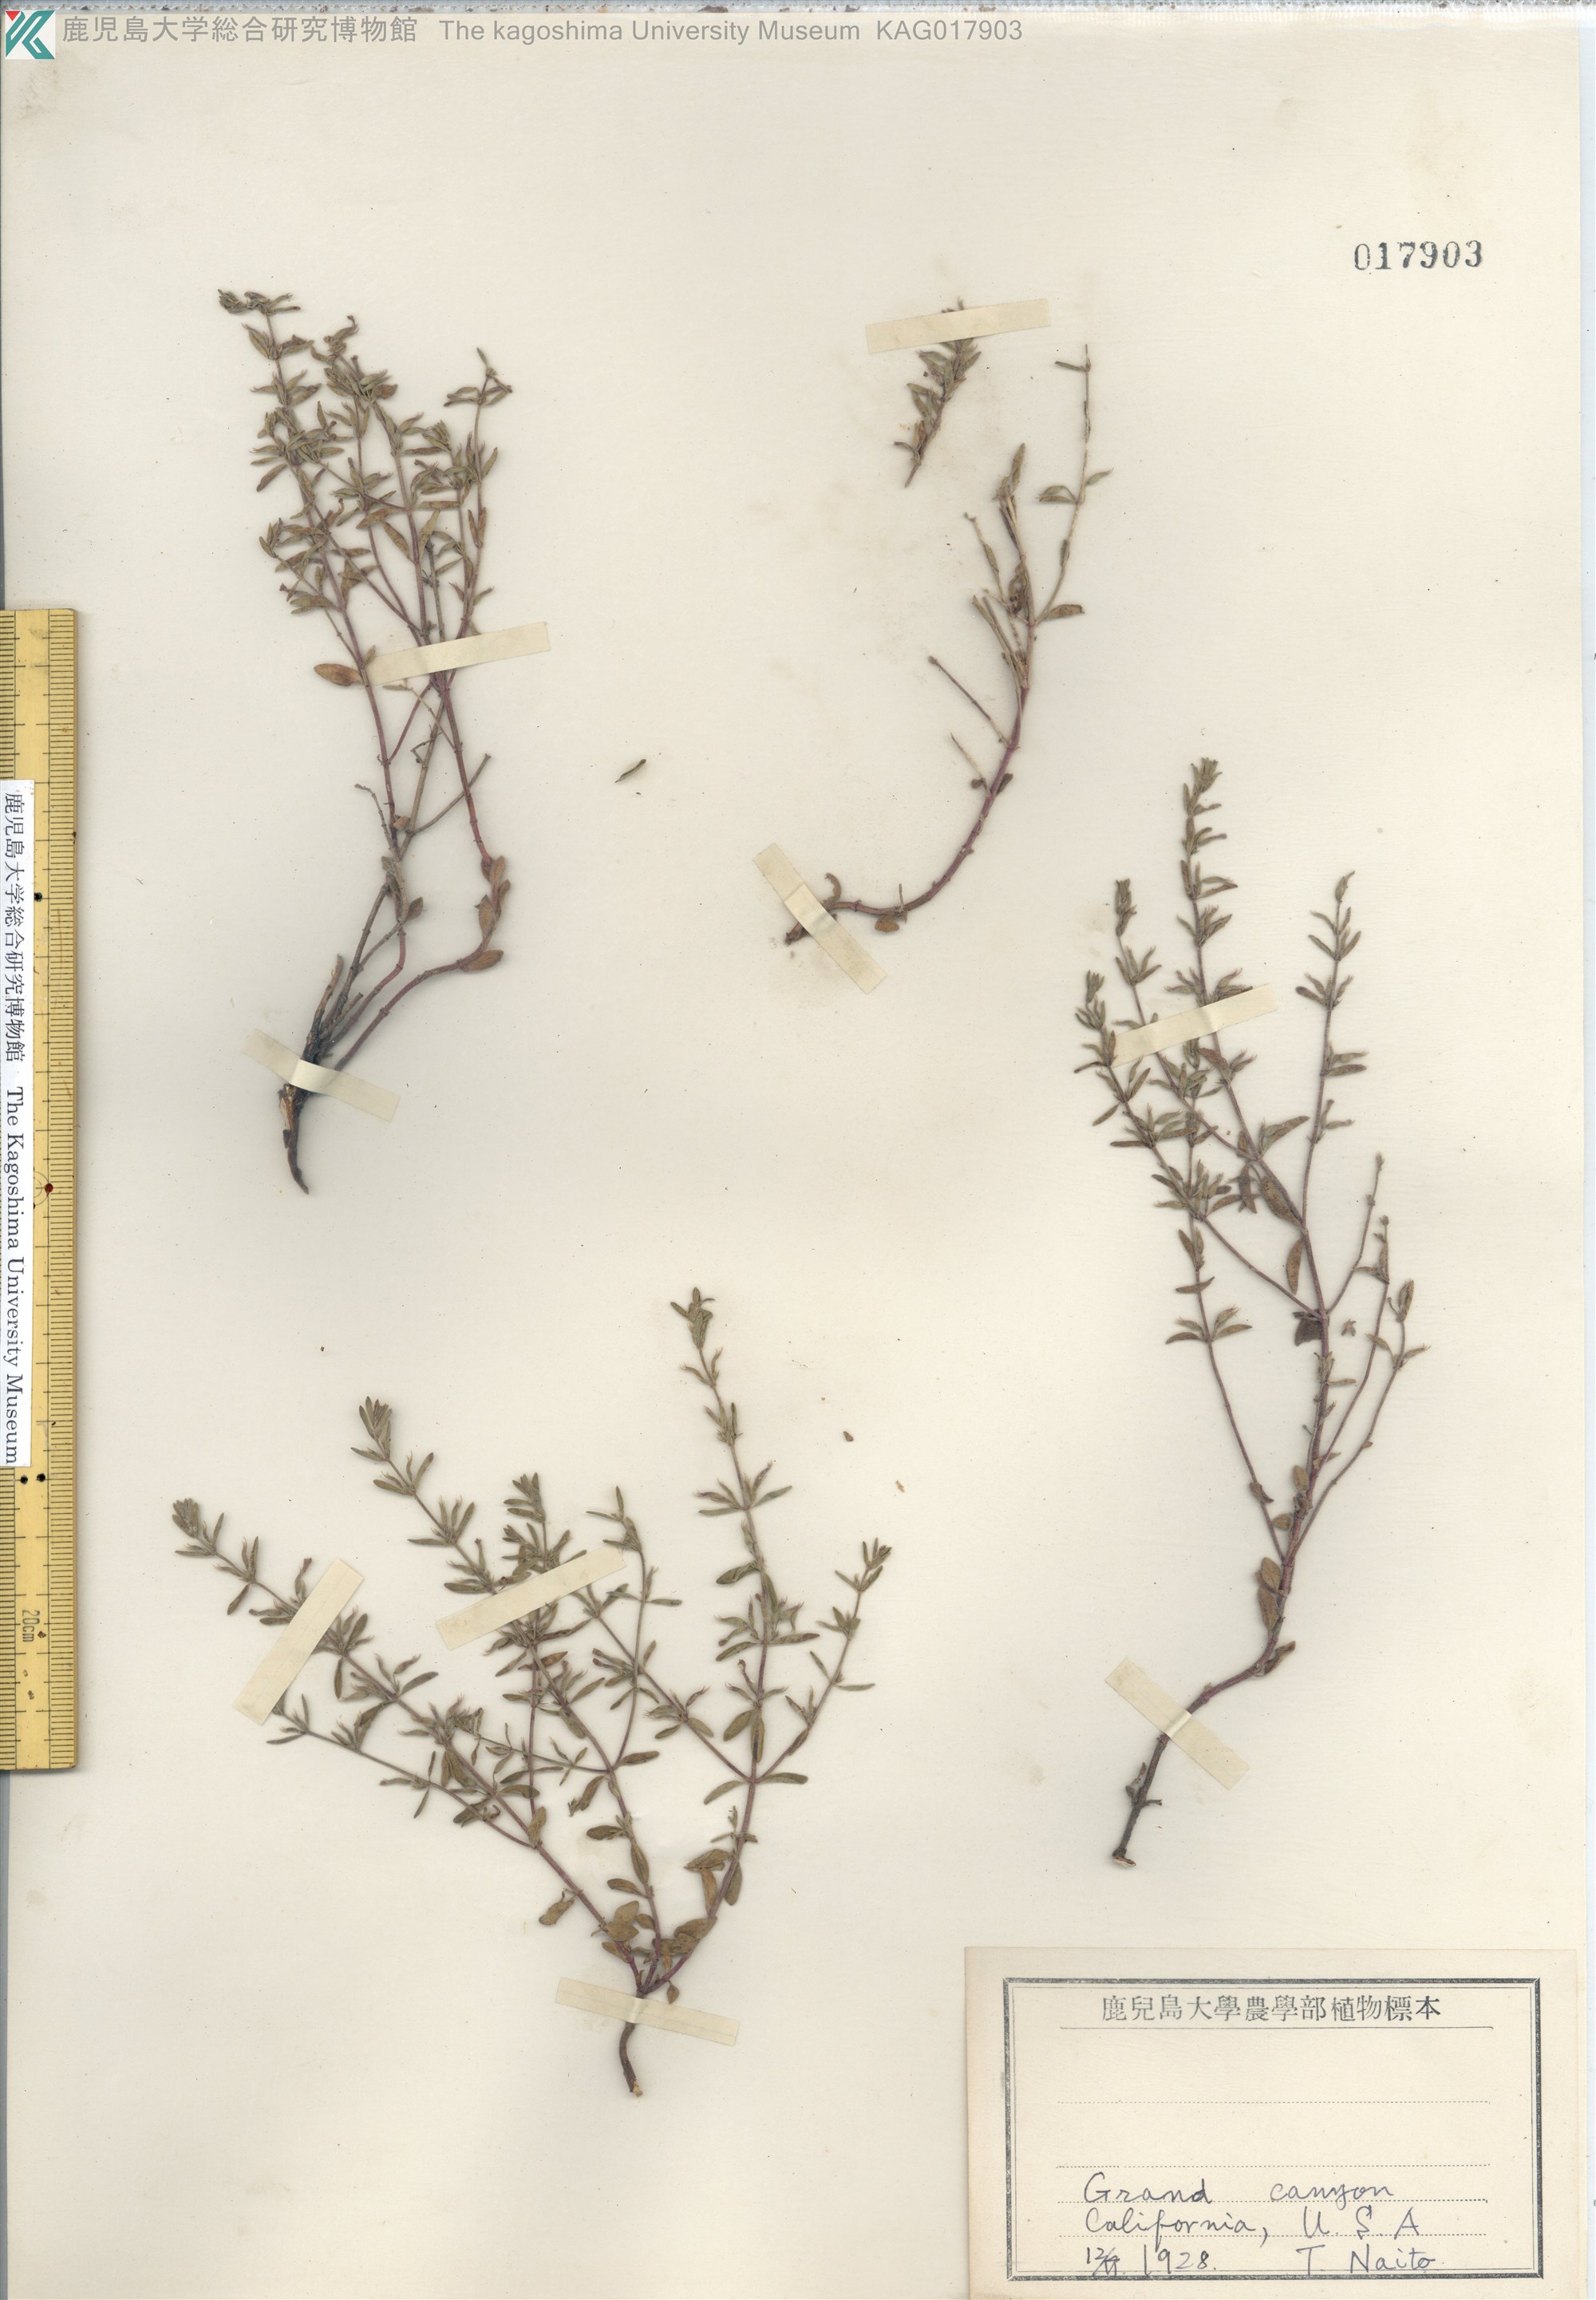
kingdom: Plantae
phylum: Tracheophyta
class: Magnoliopsida
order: Lamiales
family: Lamiaceae
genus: Hedeoma
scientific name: Hedeoma
